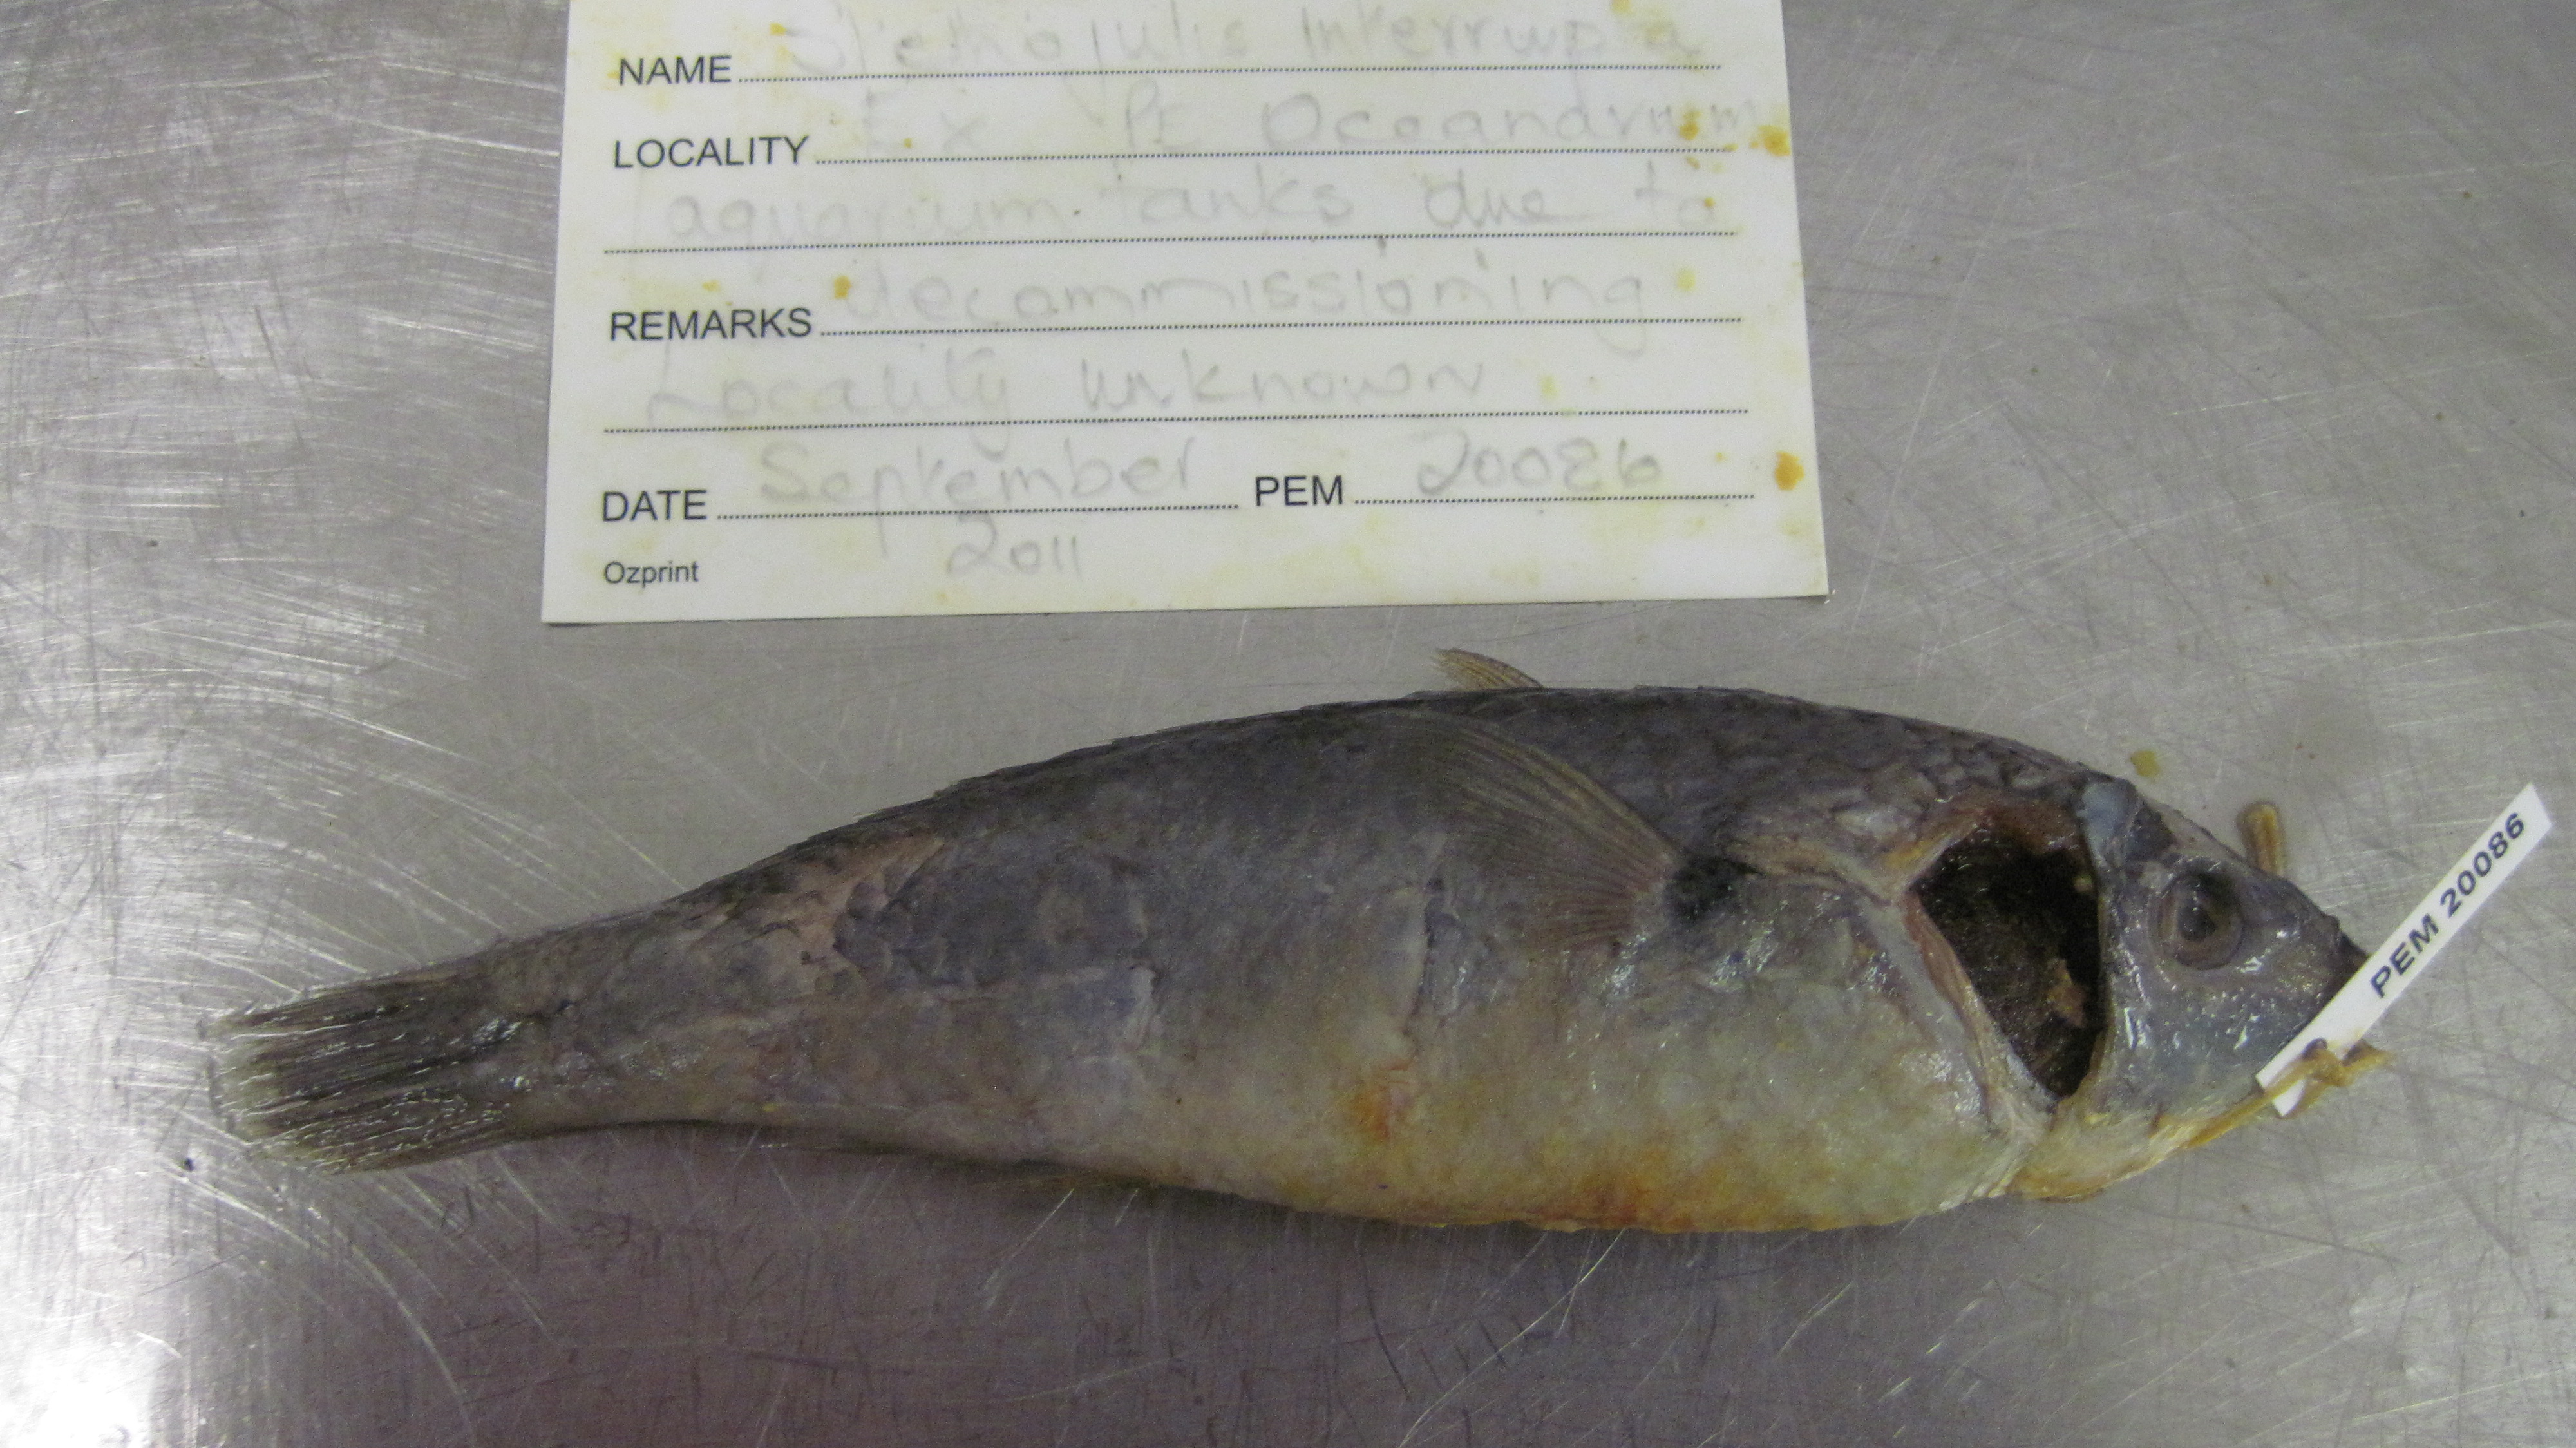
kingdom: Animalia
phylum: Chordata
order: Perciformes
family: Labridae
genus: Stethojulis
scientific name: Stethojulis interrupta
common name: Cutribbon wrasse
